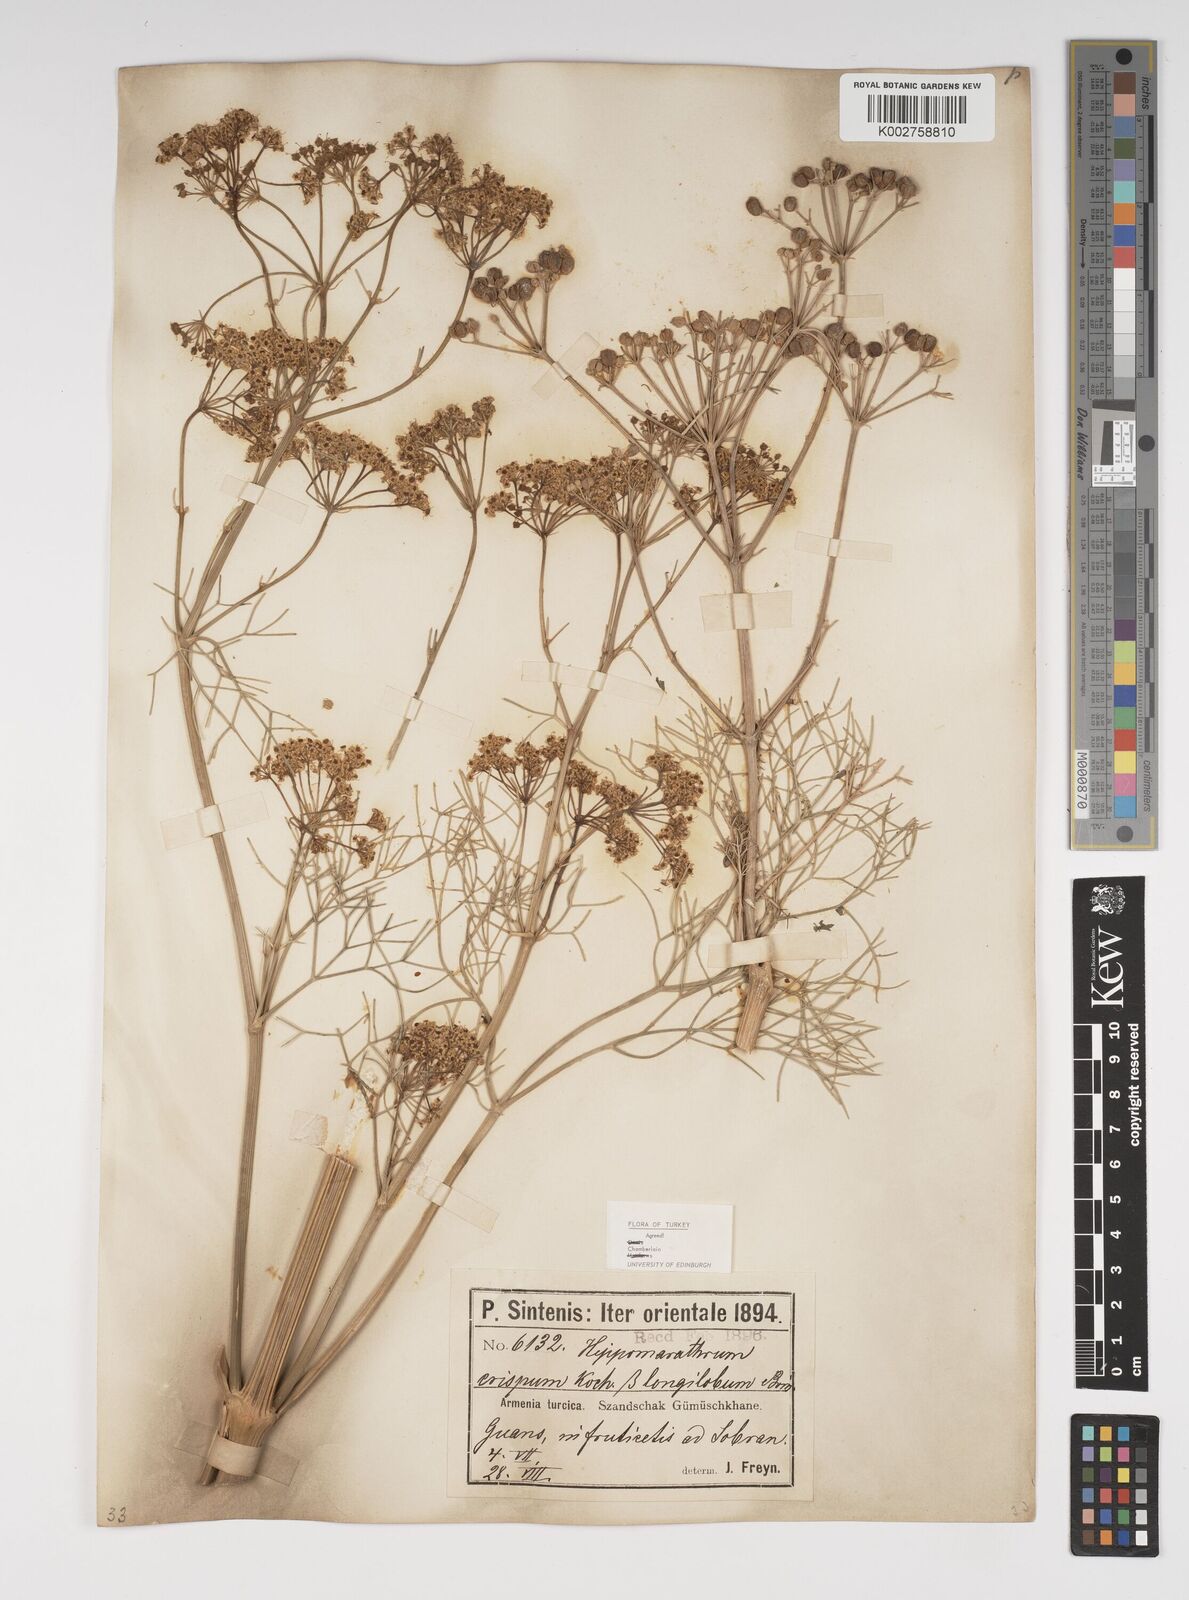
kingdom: Plantae
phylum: Tracheophyta
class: Magnoliopsida
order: Apiales
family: Apiaceae
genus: Bilacunaria
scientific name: Bilacunaria microcarpa
